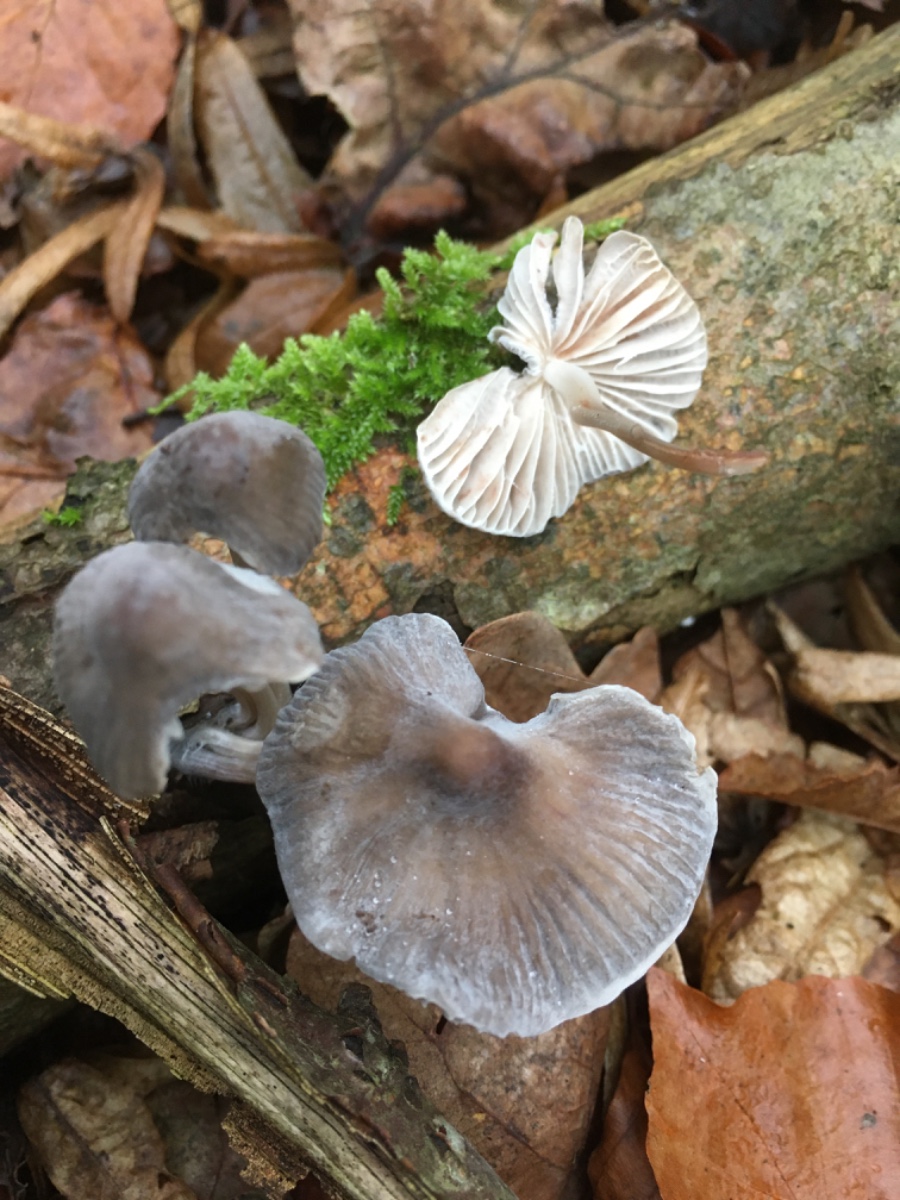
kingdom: Fungi
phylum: Basidiomycota
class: Agaricomycetes
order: Agaricales
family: Mycenaceae
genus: Mycena
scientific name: Mycena polygramma
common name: mangestribet huesvamp
